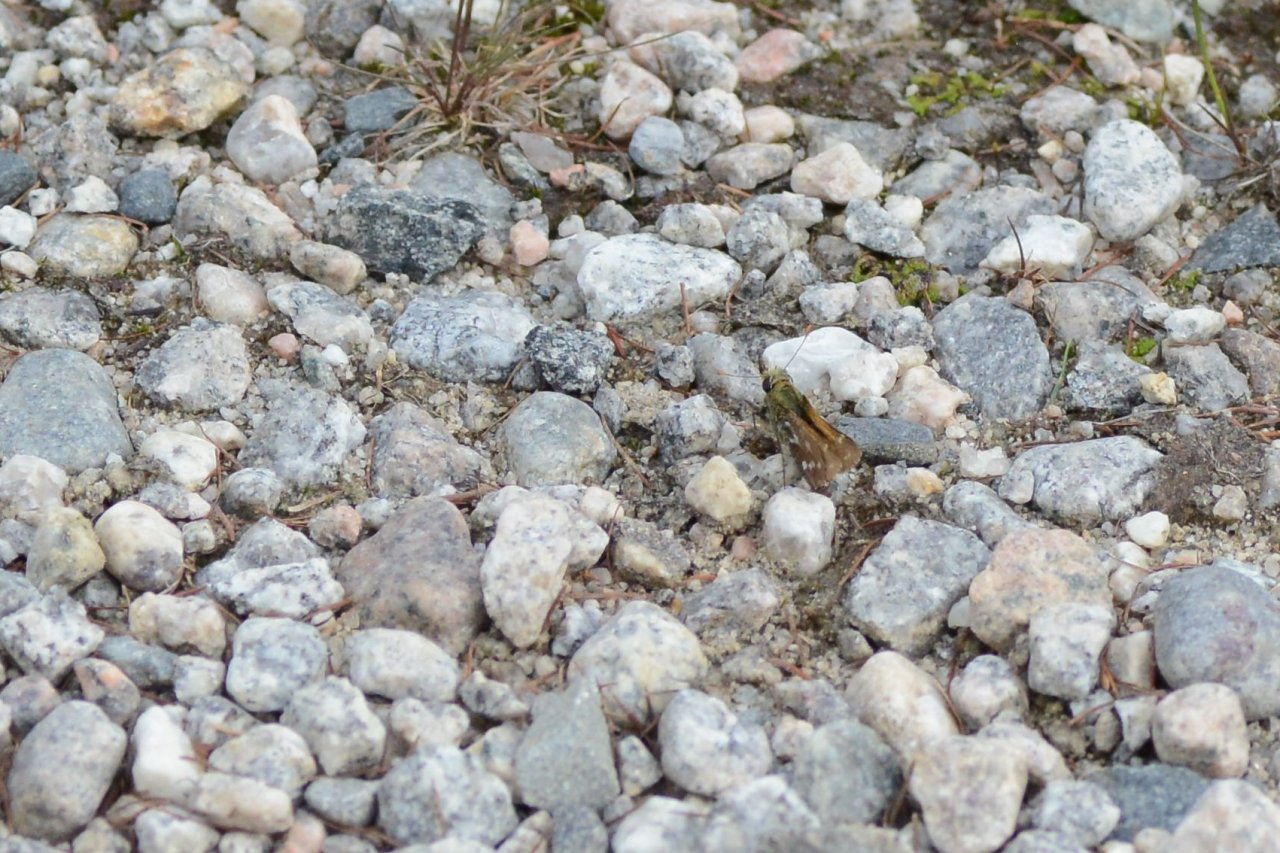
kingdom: Animalia
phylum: Arthropoda
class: Insecta
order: Lepidoptera
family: Hesperiidae
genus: Hesperia
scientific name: Hesperia comma
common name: Common Branded Skipper
